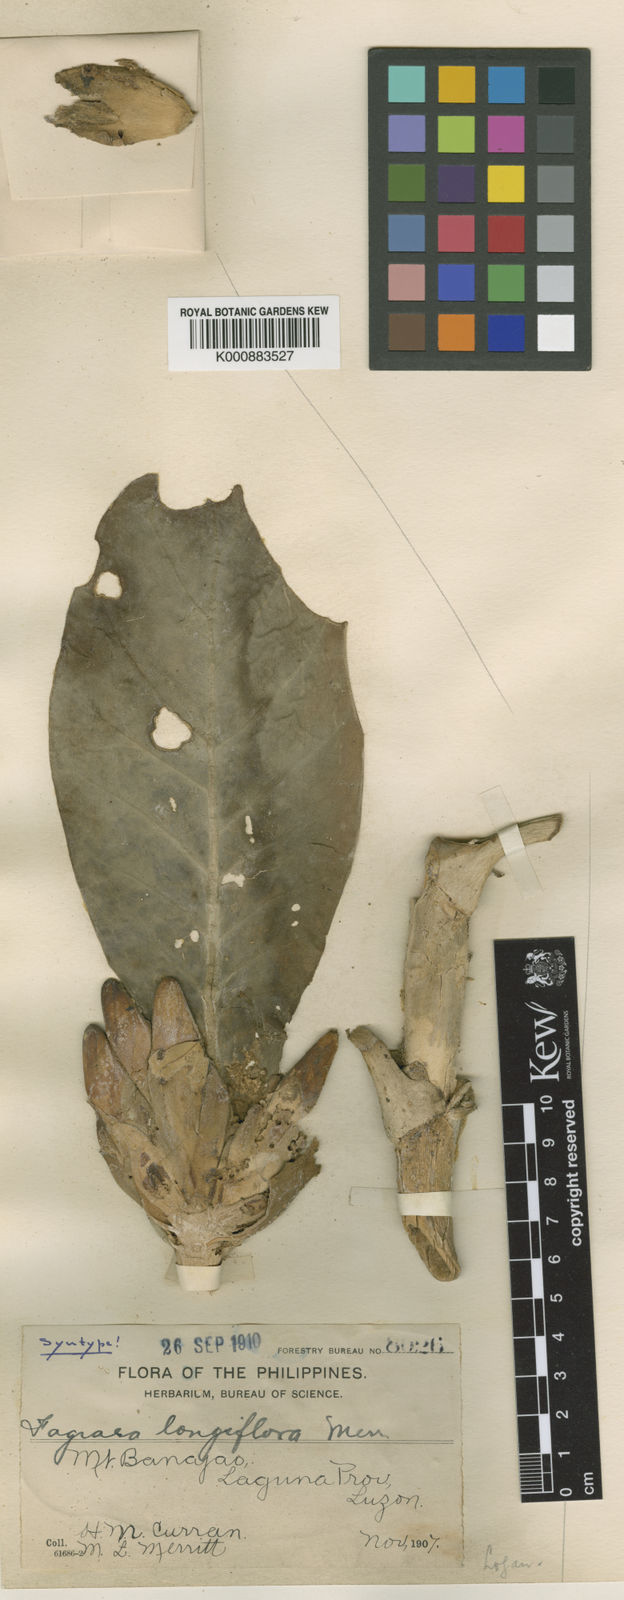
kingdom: Plantae
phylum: Tracheophyta
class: Magnoliopsida
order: Gentianales
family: Gentianaceae
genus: Fagraea
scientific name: Fagraea longiflora
